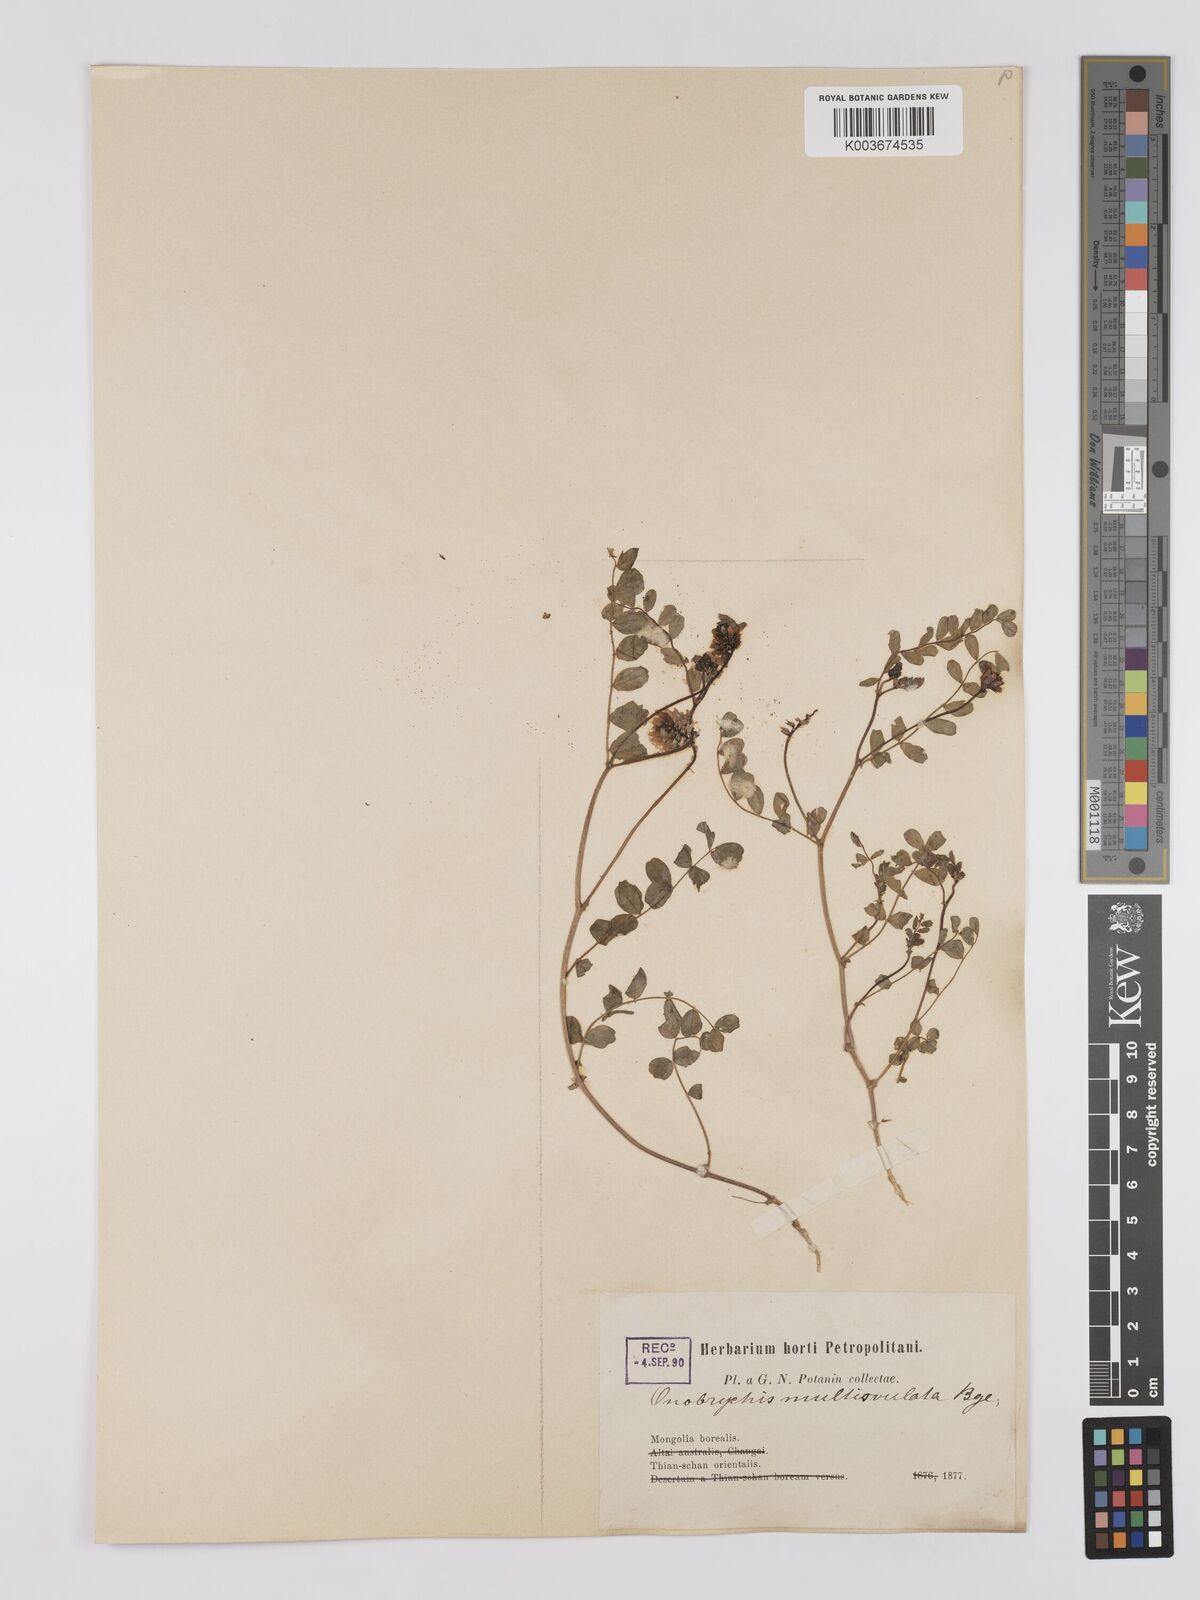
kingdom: Plantae
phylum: Tracheophyta
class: Magnoliopsida
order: Fabales
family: Fabaceae
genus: Onobrychis
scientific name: Onobrychis
